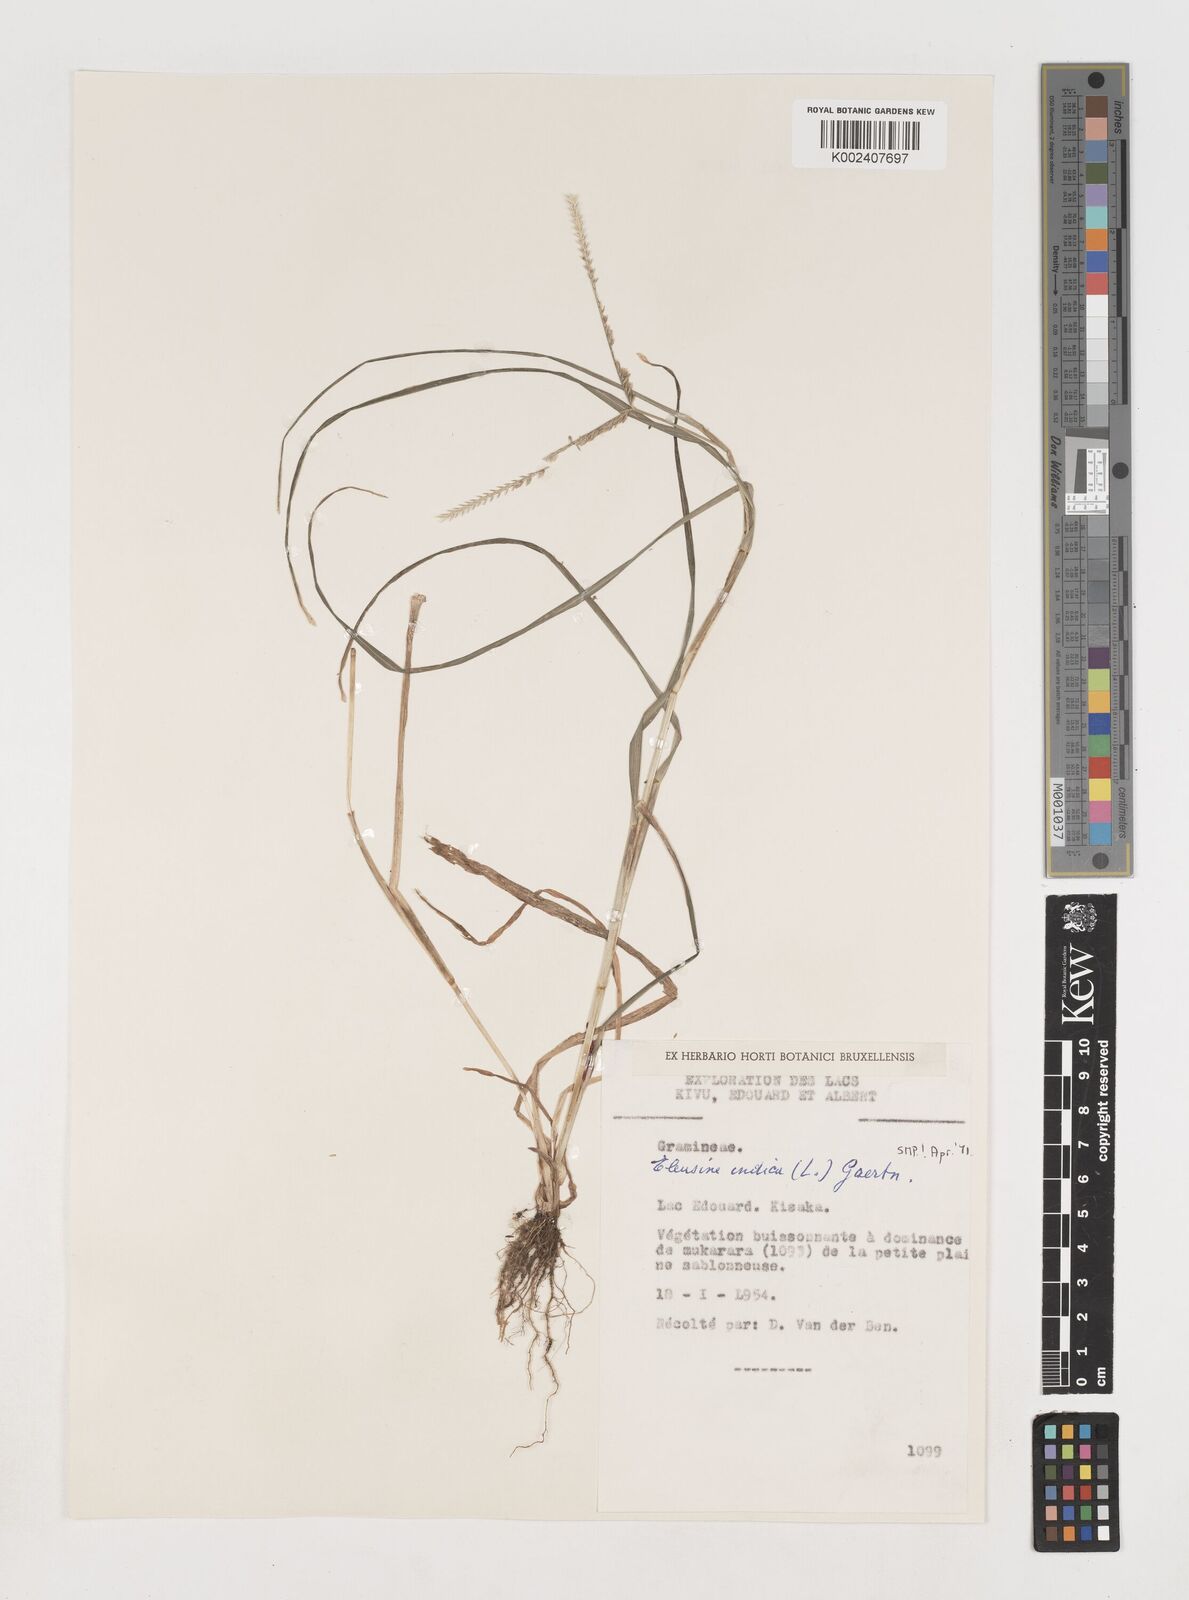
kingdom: Plantae
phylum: Tracheophyta
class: Liliopsida
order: Poales
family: Poaceae
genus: Eleusine
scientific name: Eleusine indica
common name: Yard-grass
